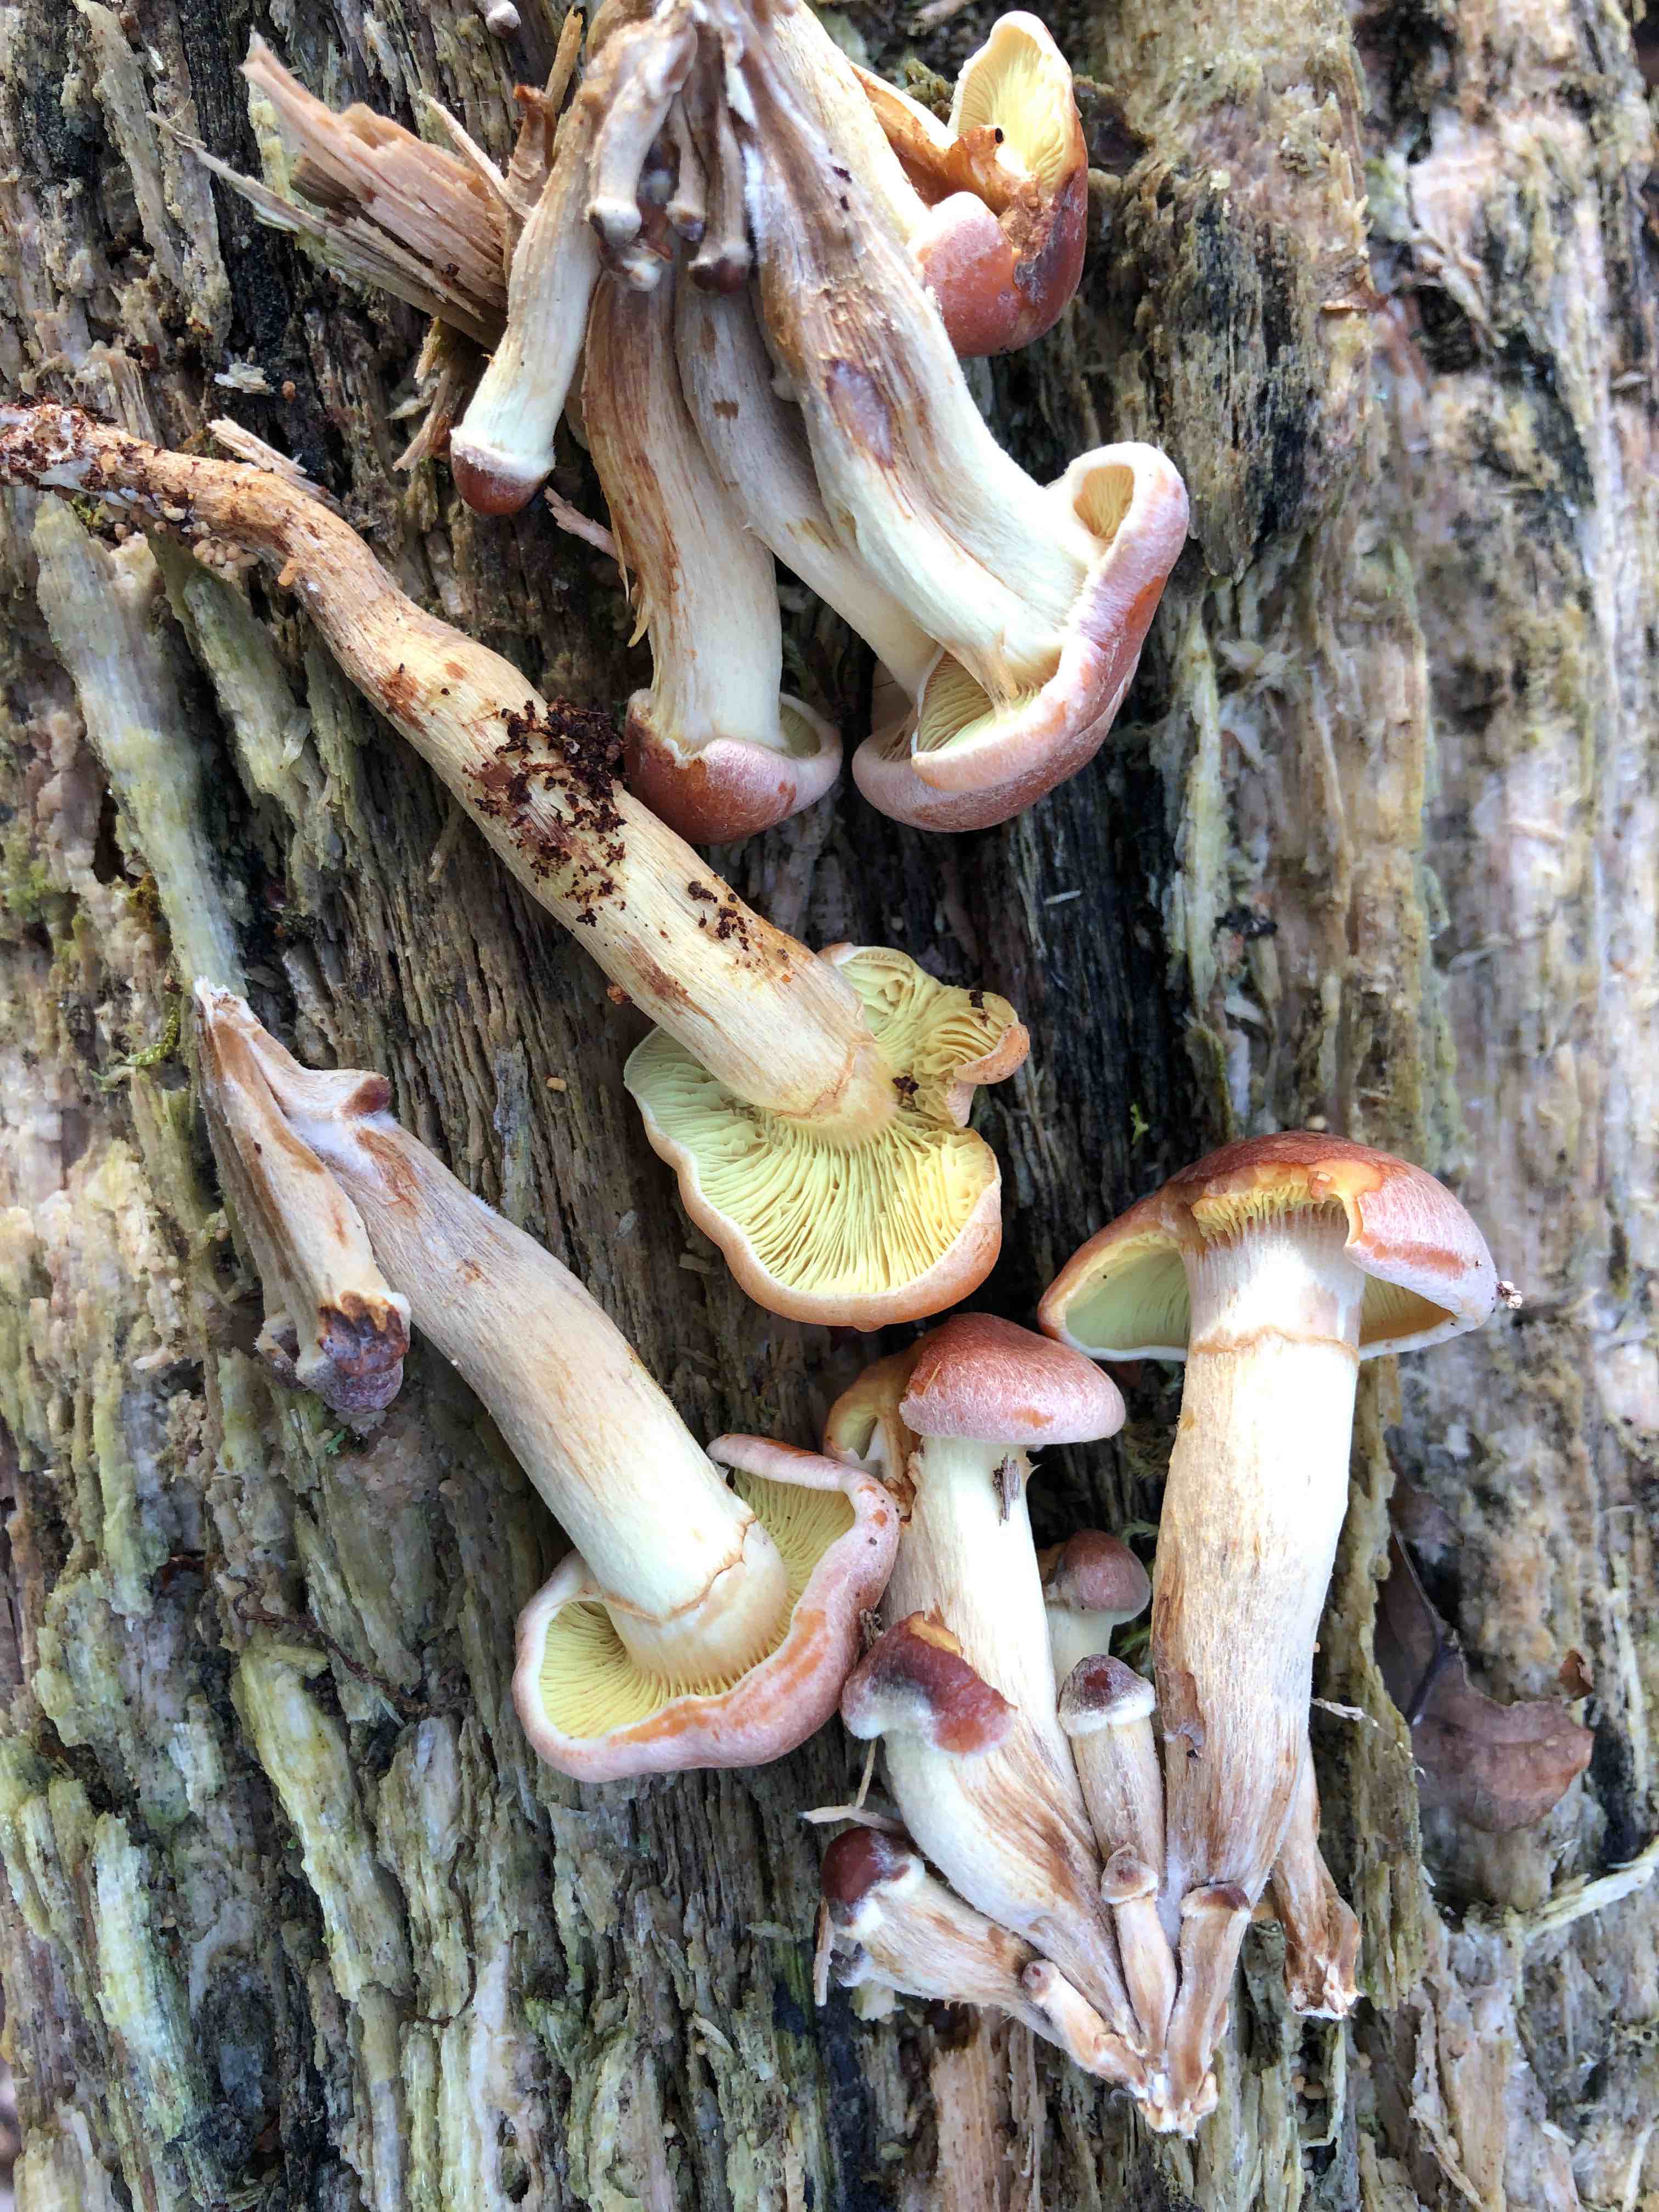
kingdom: Fungi
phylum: Basidiomycota
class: Agaricomycetes
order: Agaricales
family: Strophariaceae
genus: Hypholoma
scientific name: Hypholoma lateritium
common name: teglrød svovlhat
